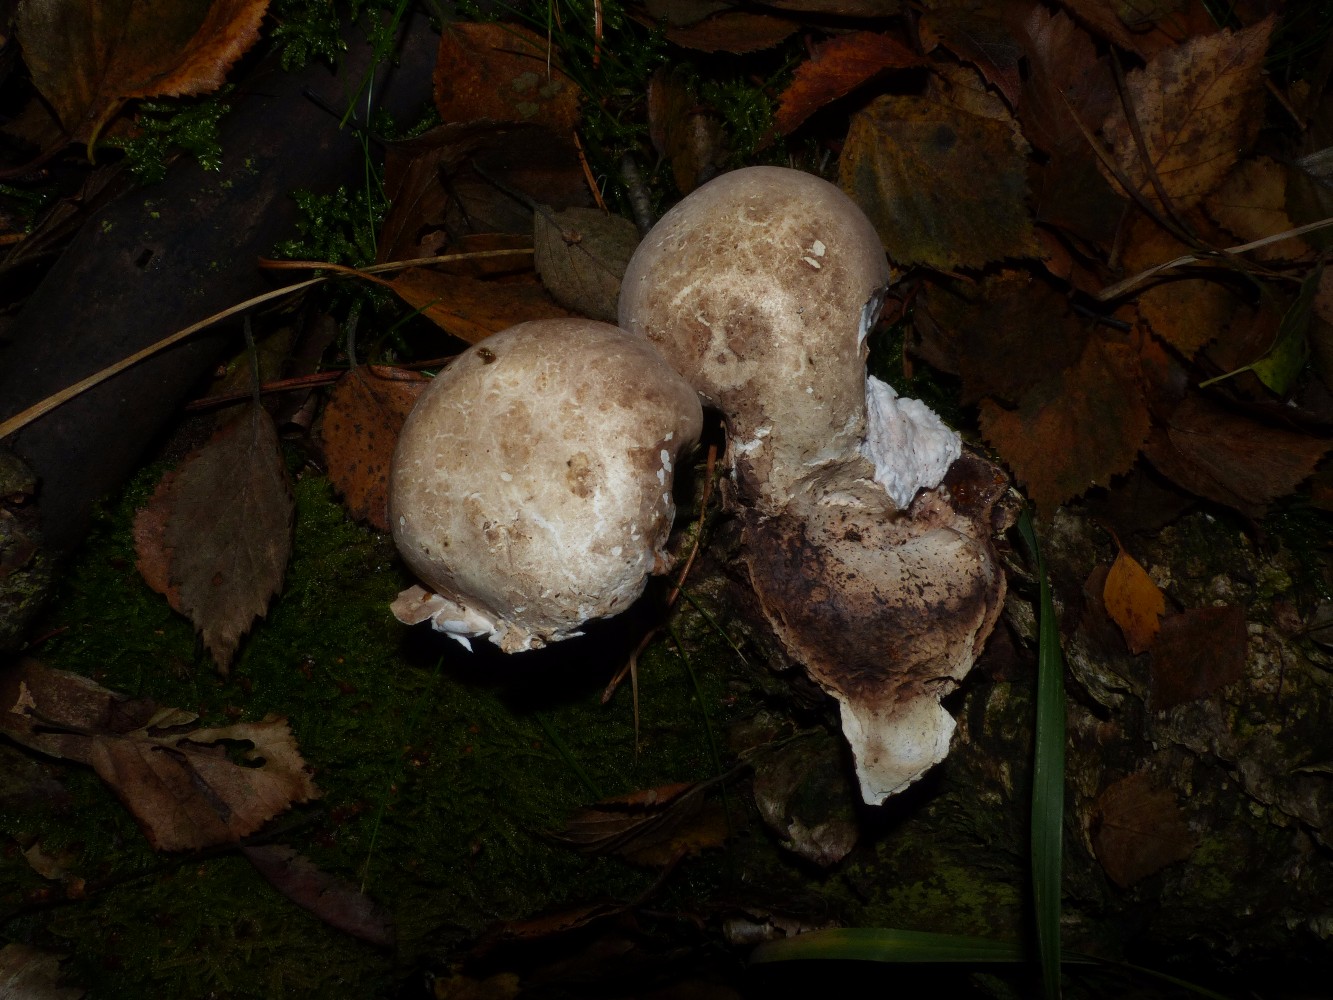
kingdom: Fungi
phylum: Basidiomycota
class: Agaricomycetes
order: Polyporales
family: Fomitopsidaceae
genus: Fomitopsis
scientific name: Fomitopsis betulina
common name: birkeporesvamp
